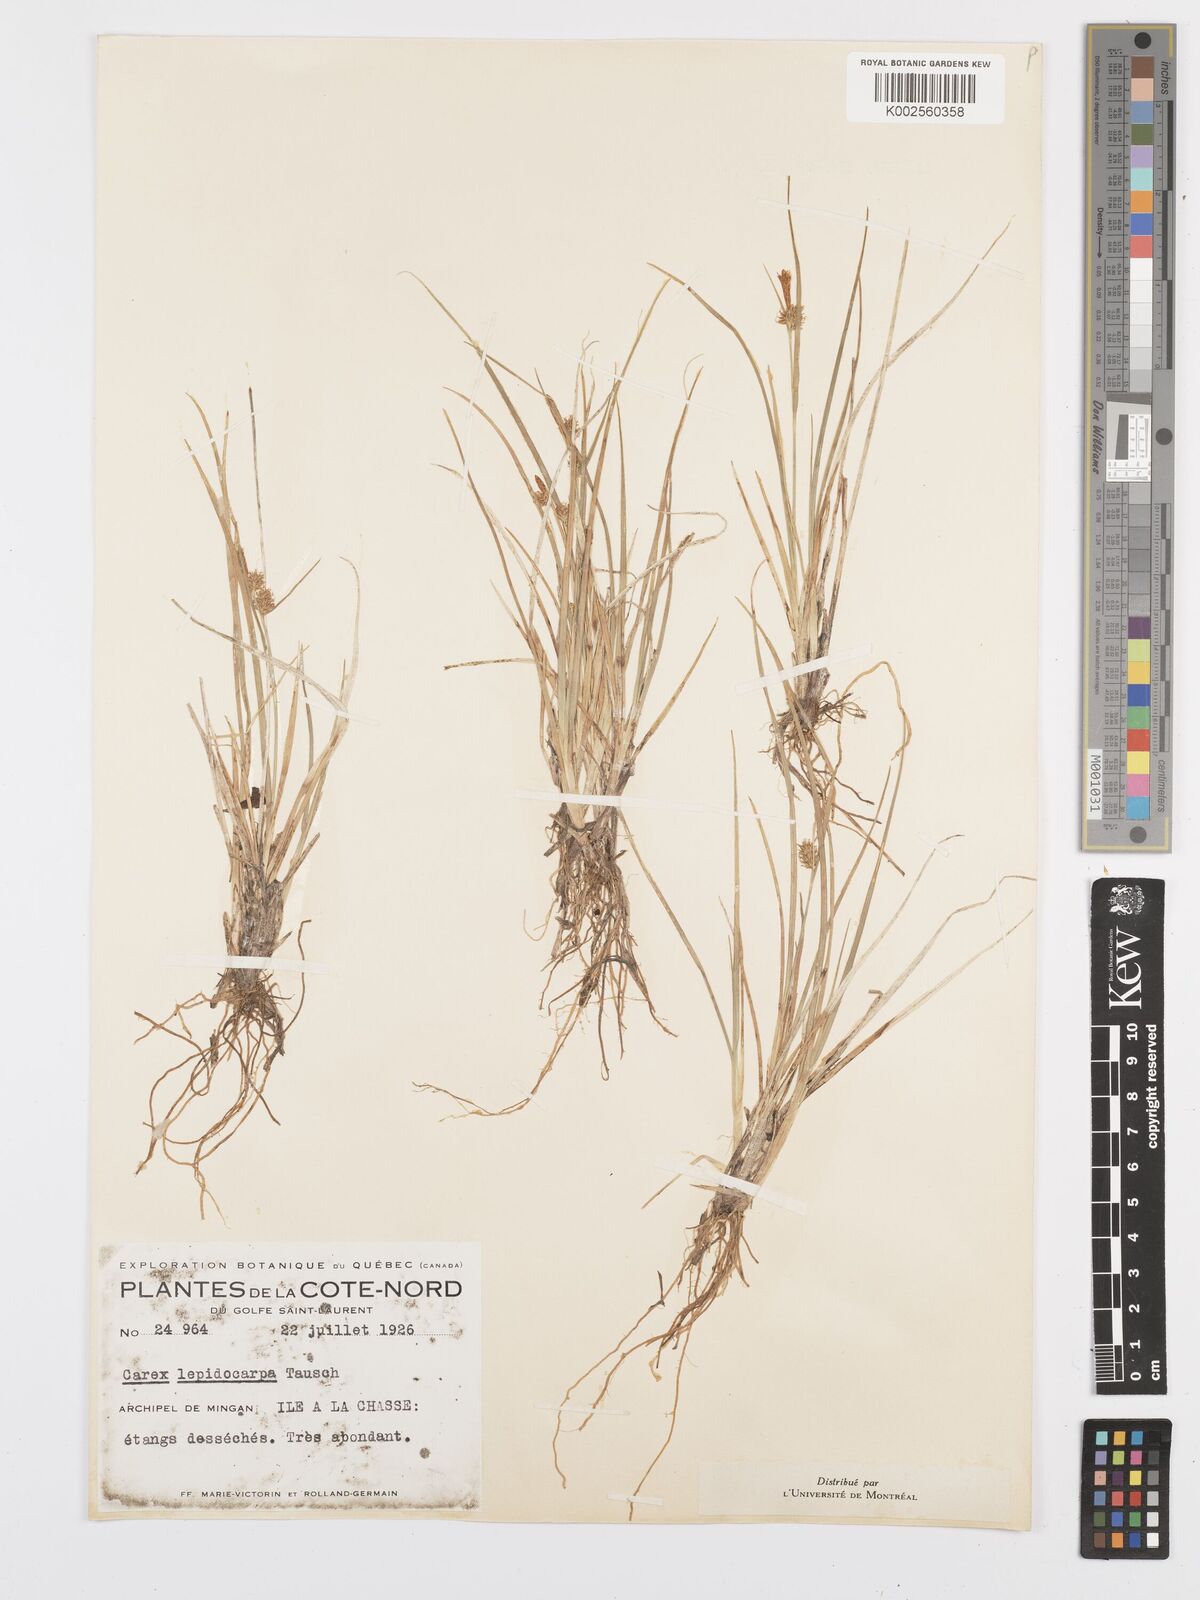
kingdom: Plantae
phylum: Tracheophyta
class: Liliopsida
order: Poales
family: Cyperaceae
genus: Carex
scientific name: Carex lepidocarpa
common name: Long-stalked yellow-sedge
